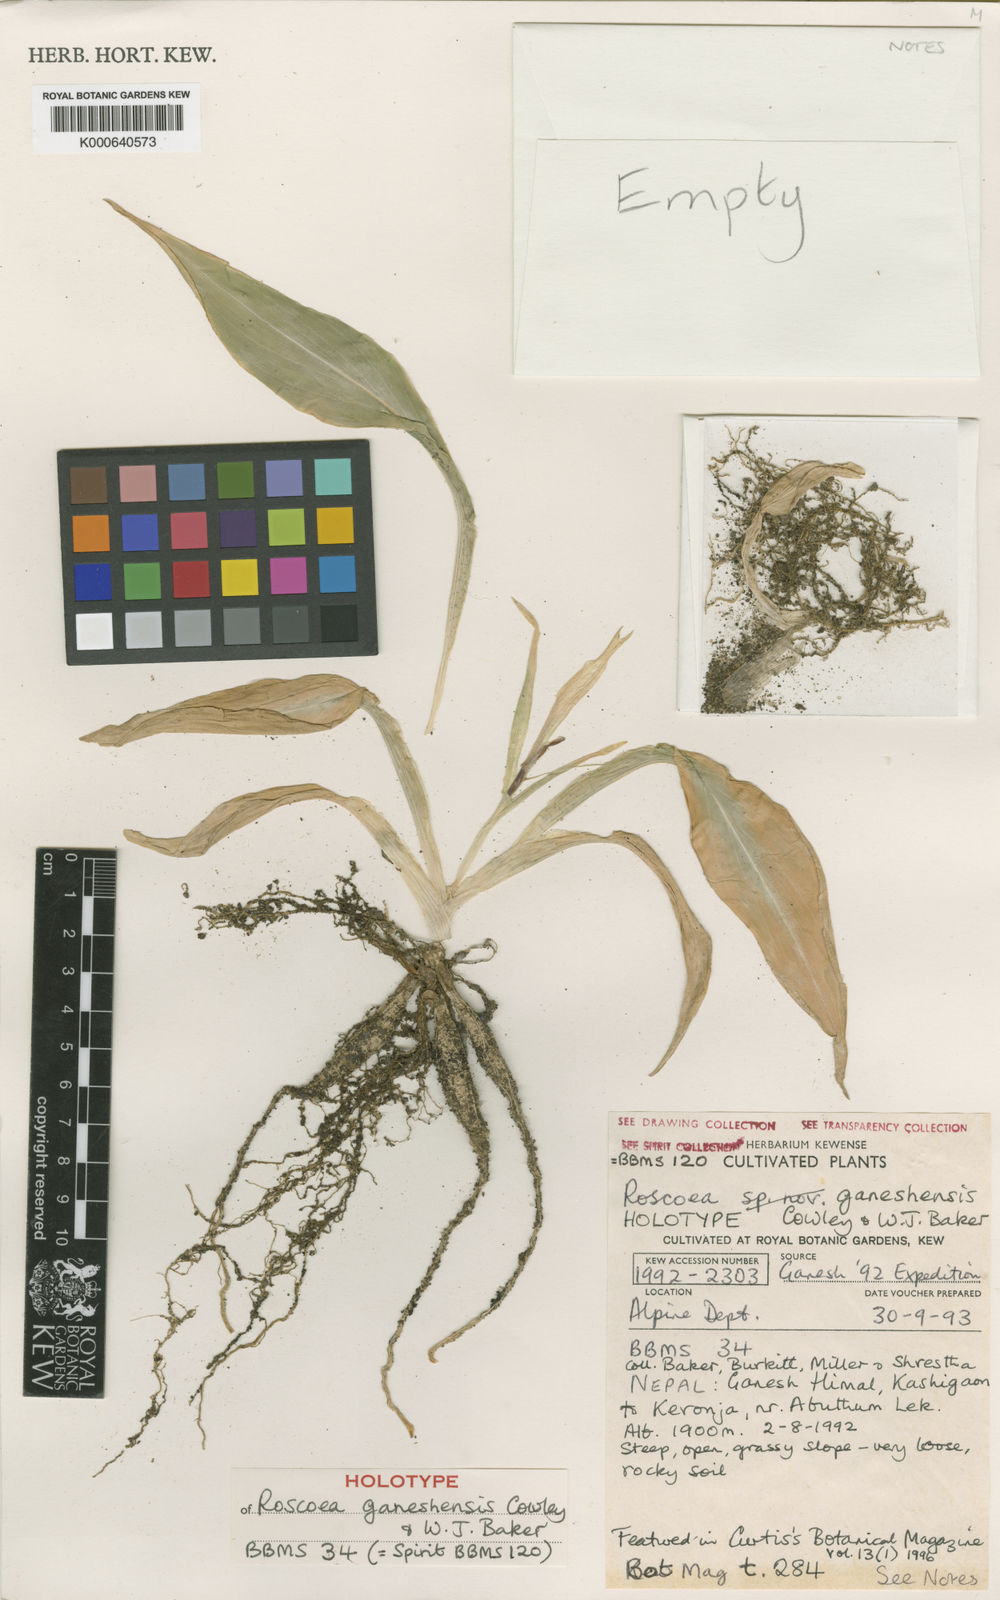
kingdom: Plantae
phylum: Tracheophyta
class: Liliopsida
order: Zingiberales
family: Zingiberaceae
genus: Roscoea
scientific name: Roscoea ganeshensis
